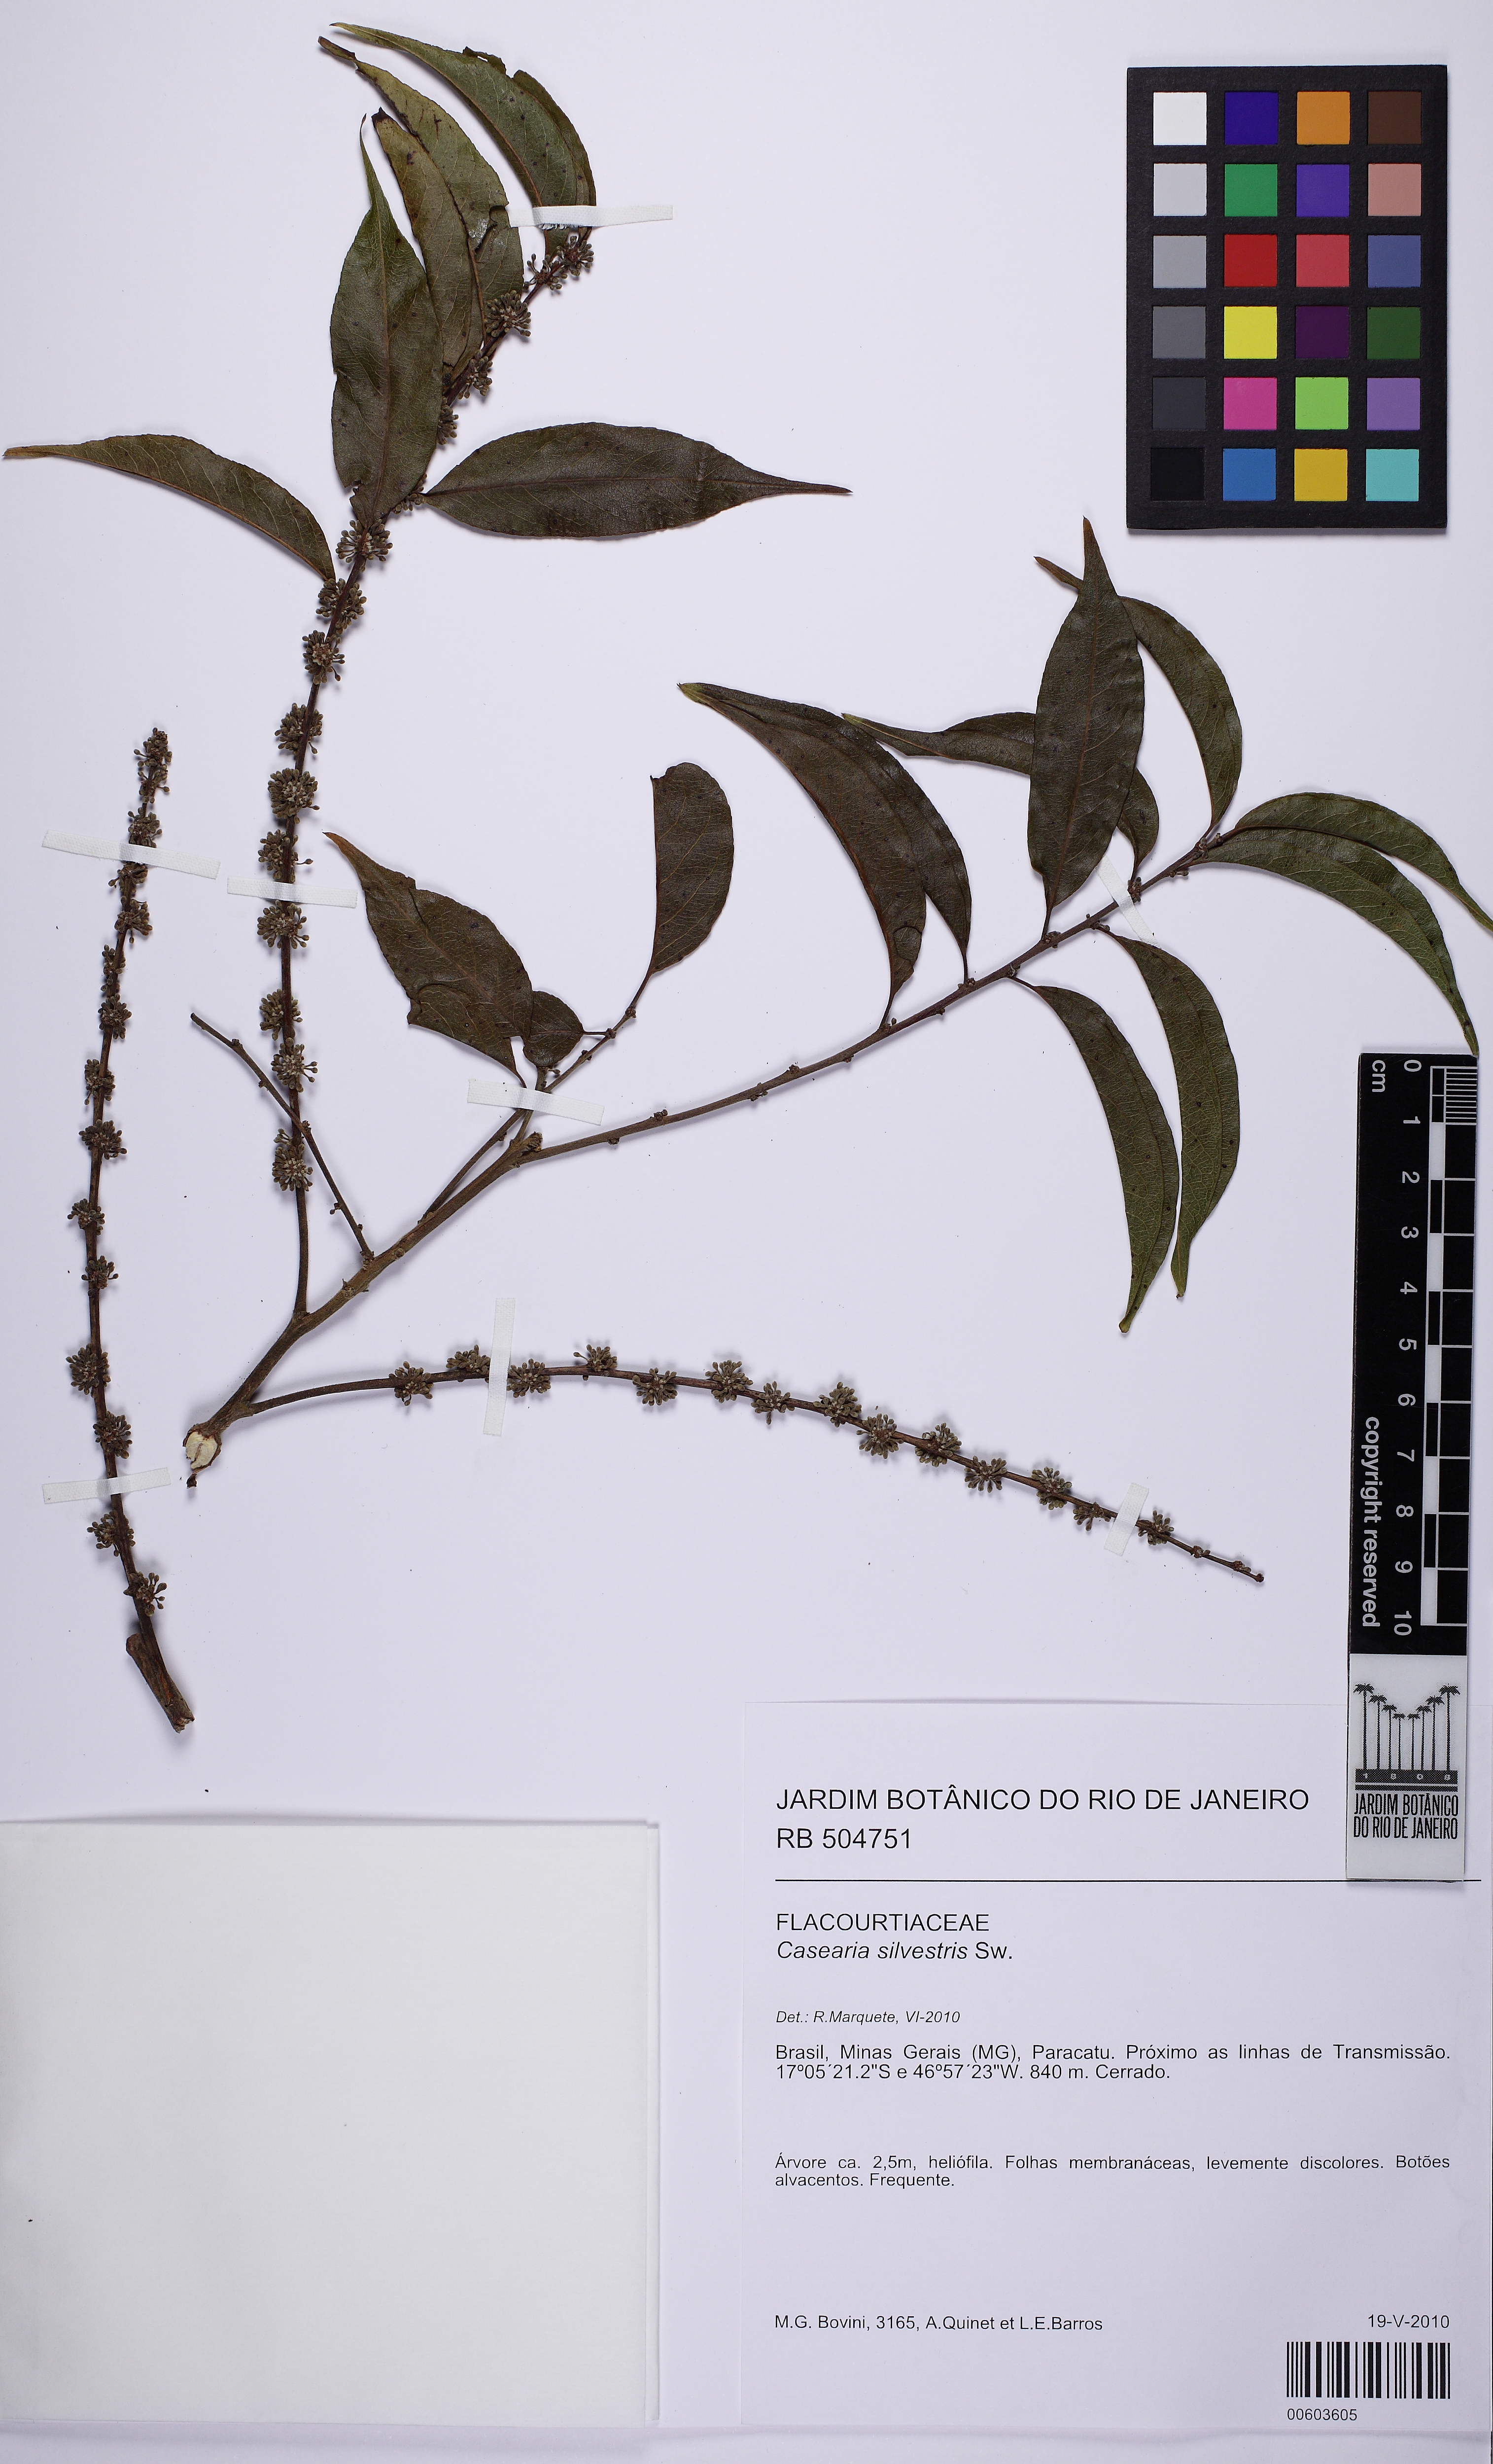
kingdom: Plantae
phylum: Tracheophyta
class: Magnoliopsida
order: Malpighiales
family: Salicaceae
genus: Casearia
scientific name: Casearia sylvestris
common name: Wild sage
